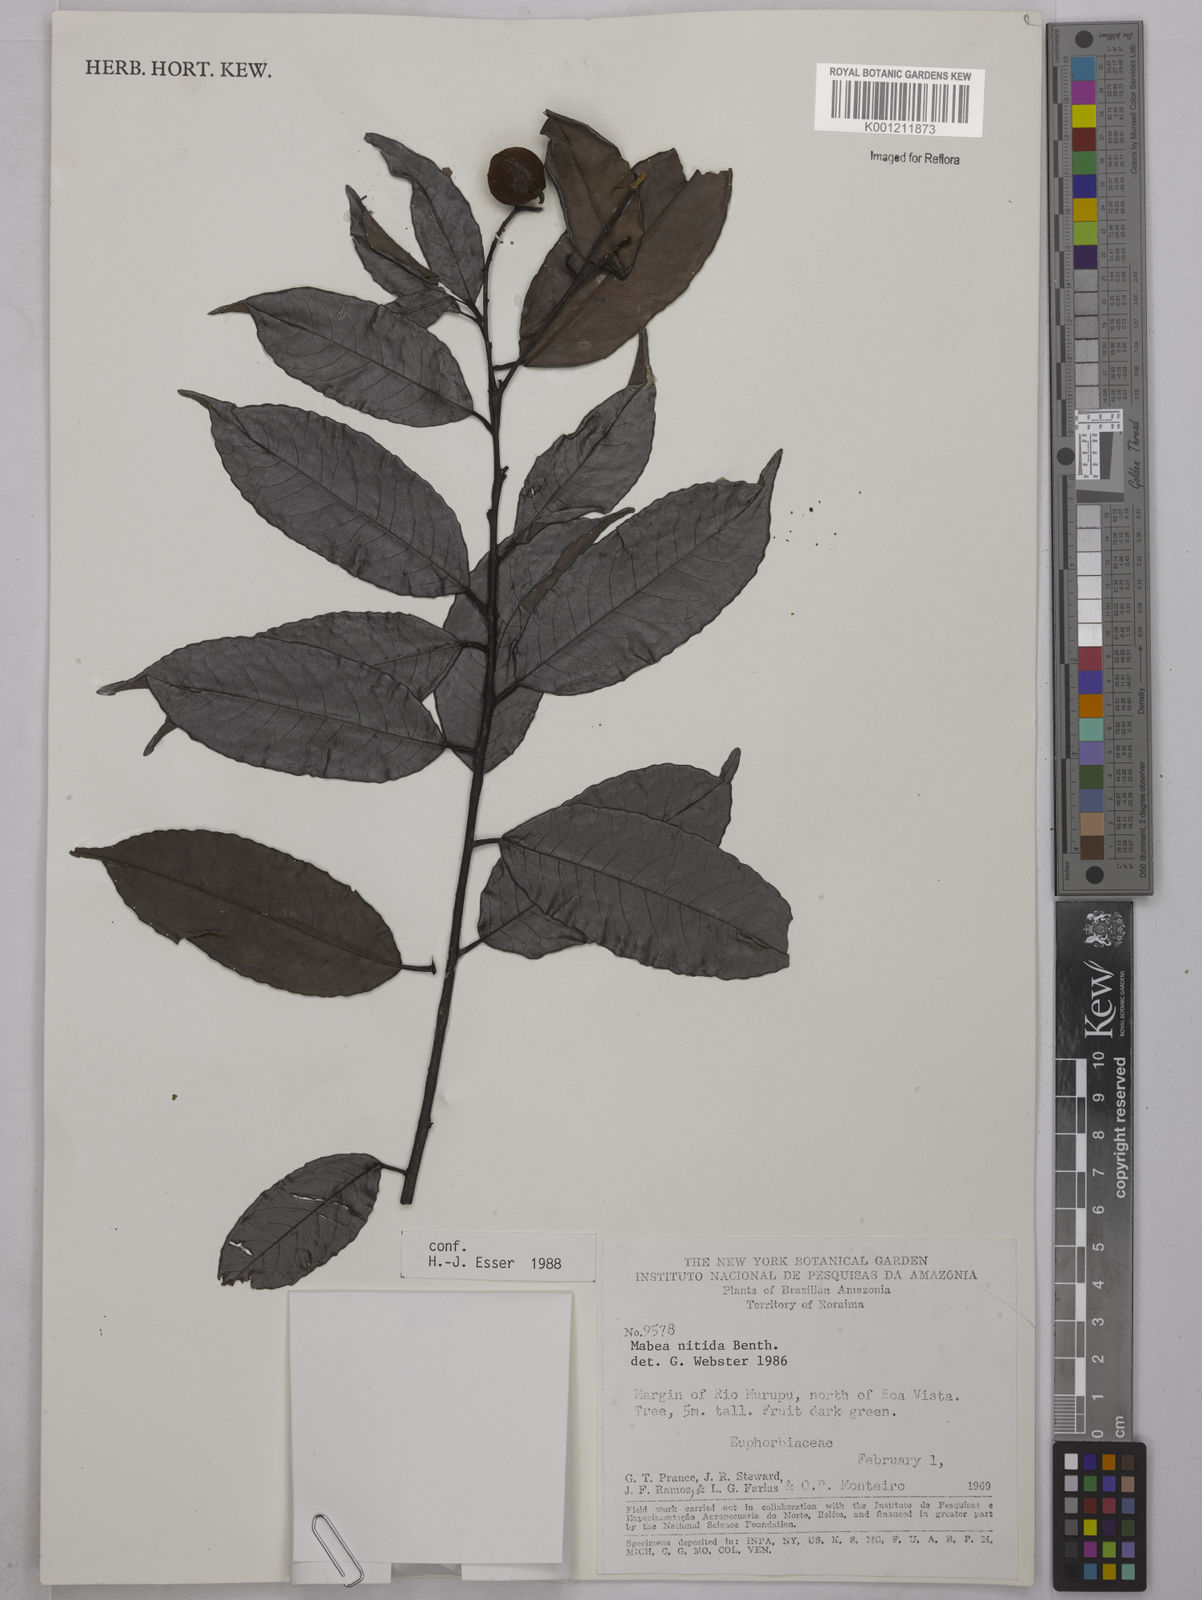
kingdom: Plantae
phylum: Tracheophyta
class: Magnoliopsida
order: Malpighiales
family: Euphorbiaceae
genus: Mabea
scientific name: Mabea nitida
